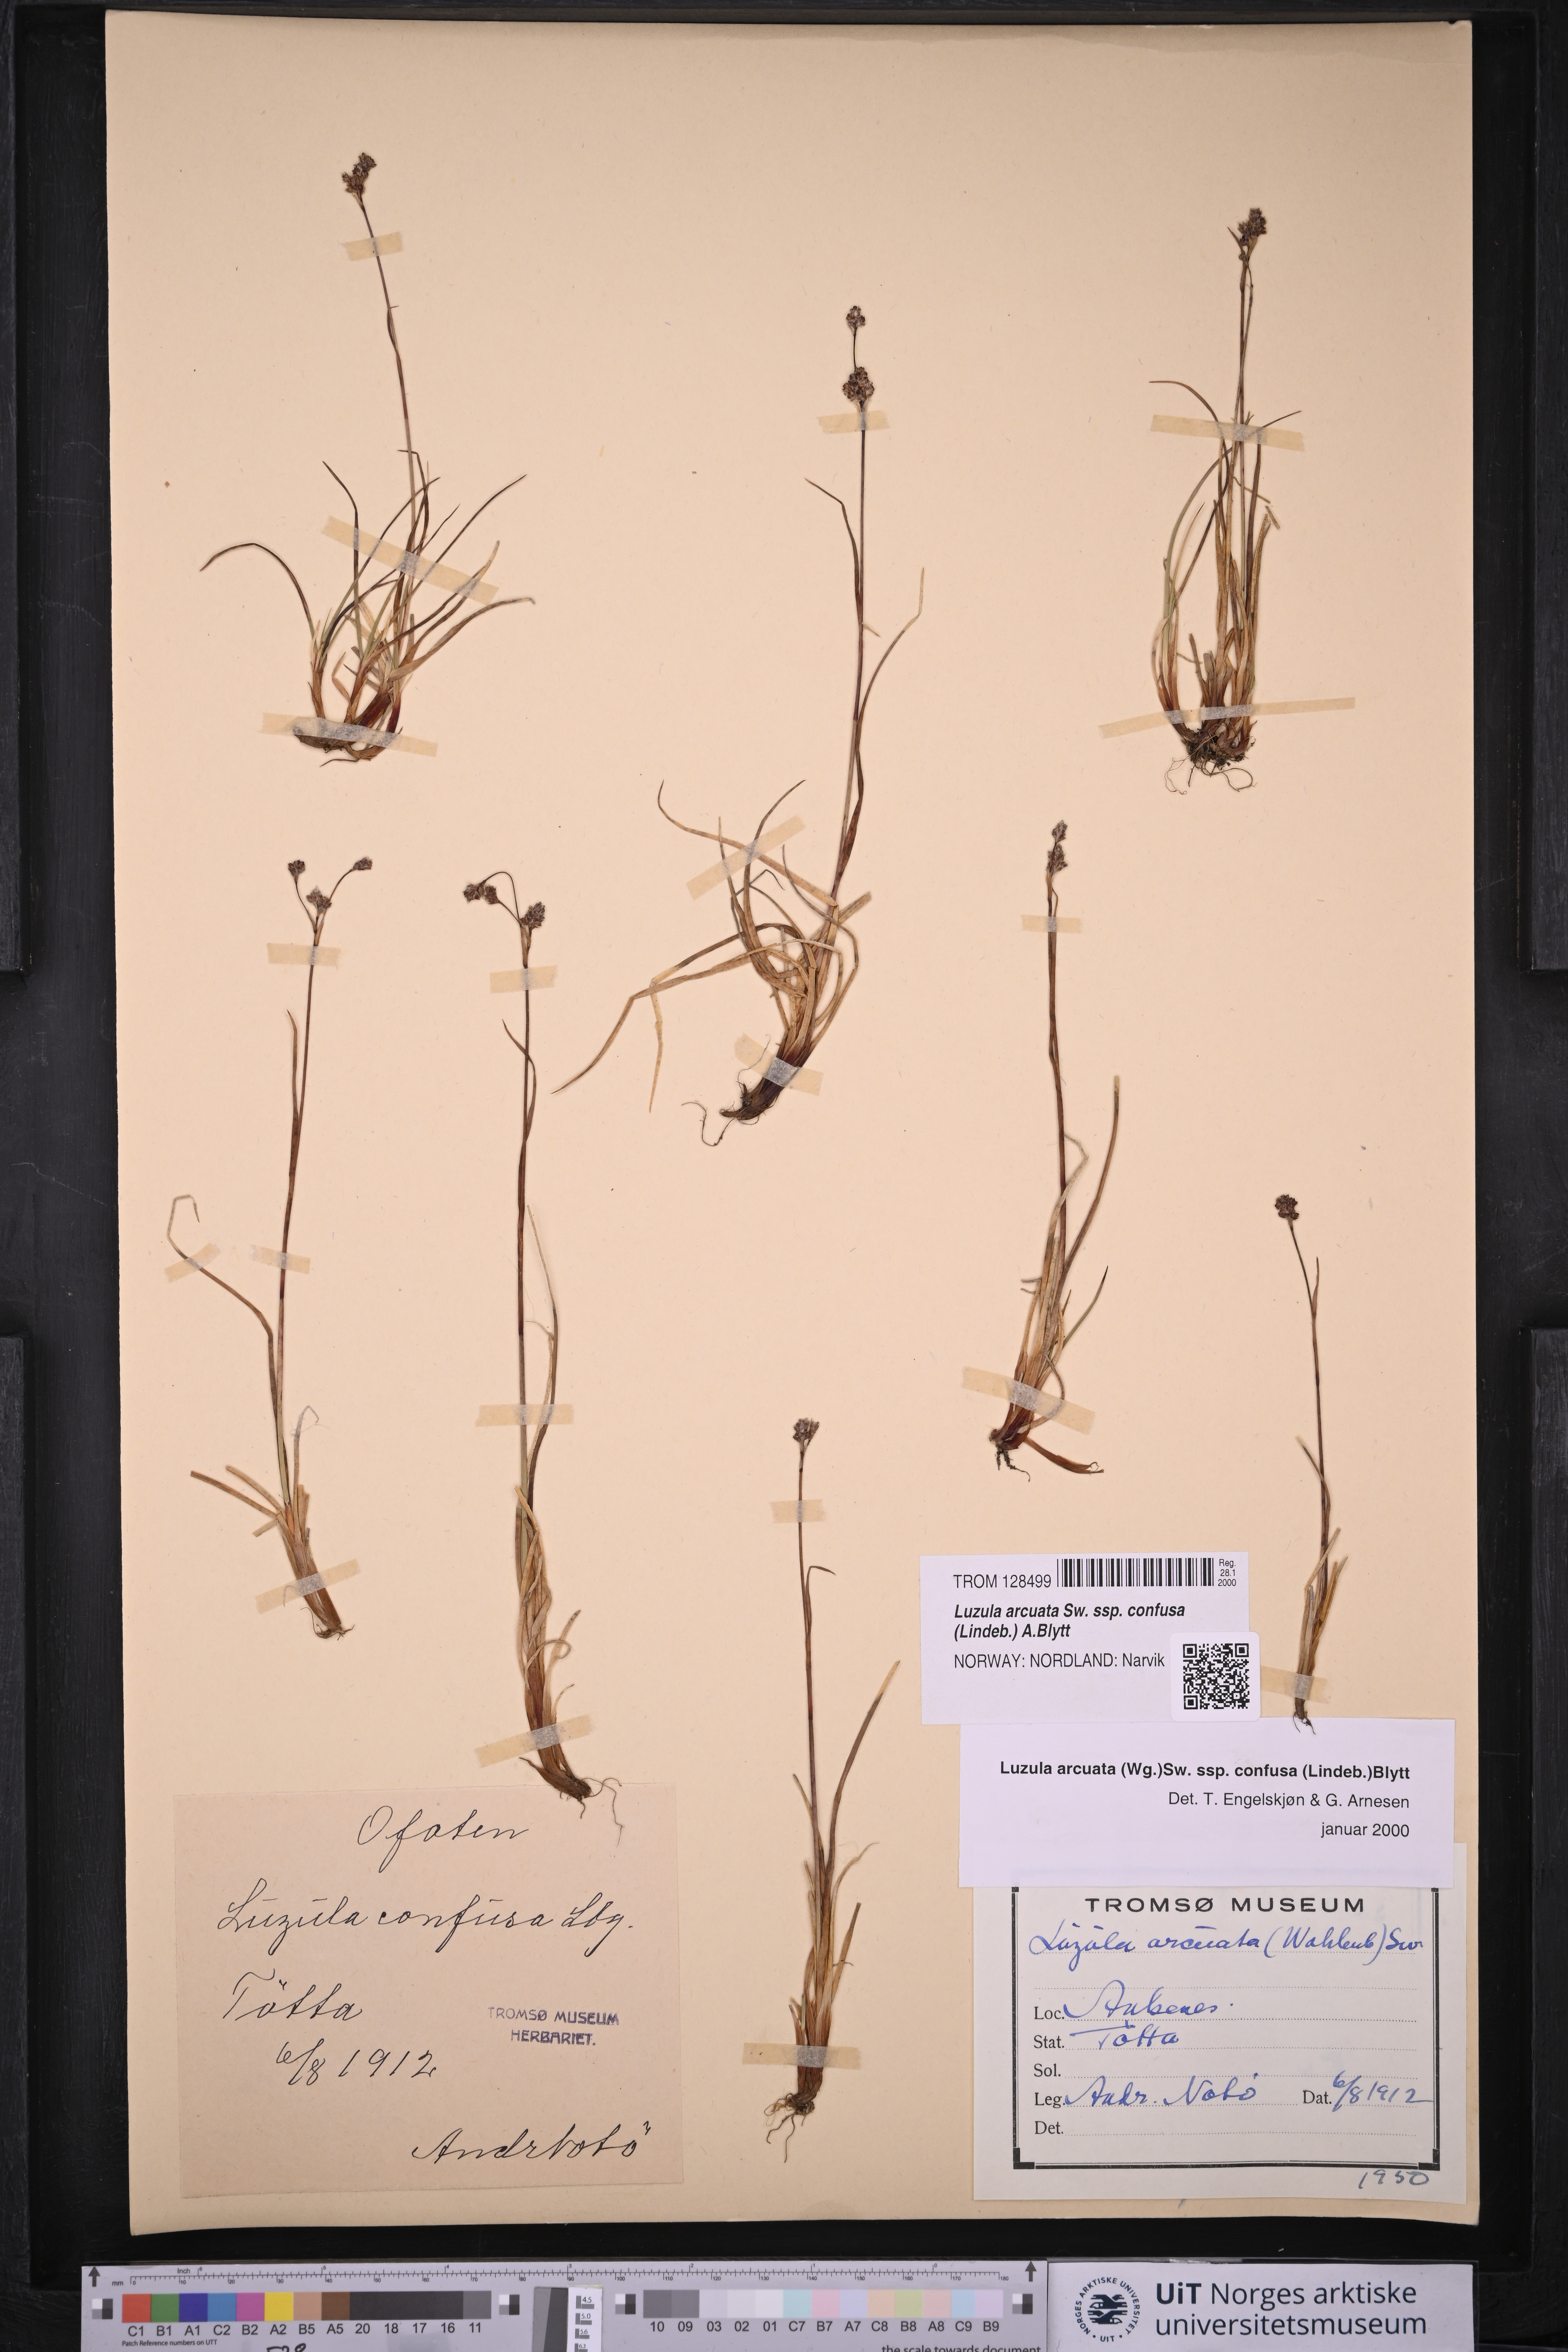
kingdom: Plantae
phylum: Tracheophyta
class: Liliopsida
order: Poales
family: Juncaceae
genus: Luzula
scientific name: Luzula confusa
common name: Northern wood rush
